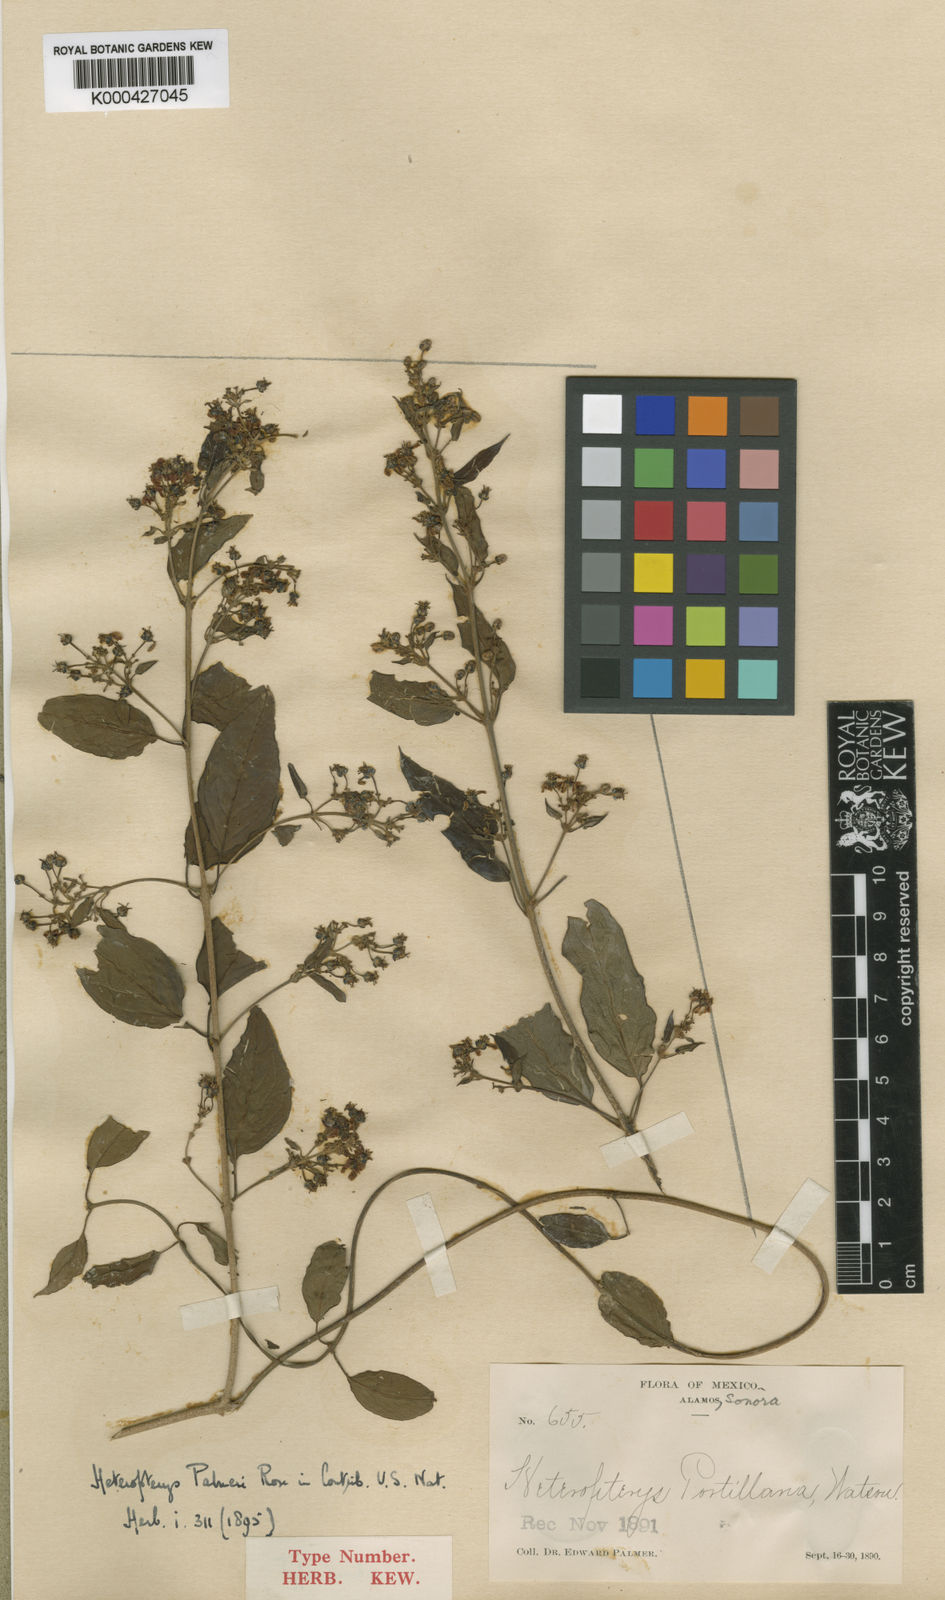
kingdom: Plantae
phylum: Tracheophyta
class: Magnoliopsida
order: Malpighiales
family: Malpighiaceae
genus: Heteropterys
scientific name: Heteropterys palmeri
